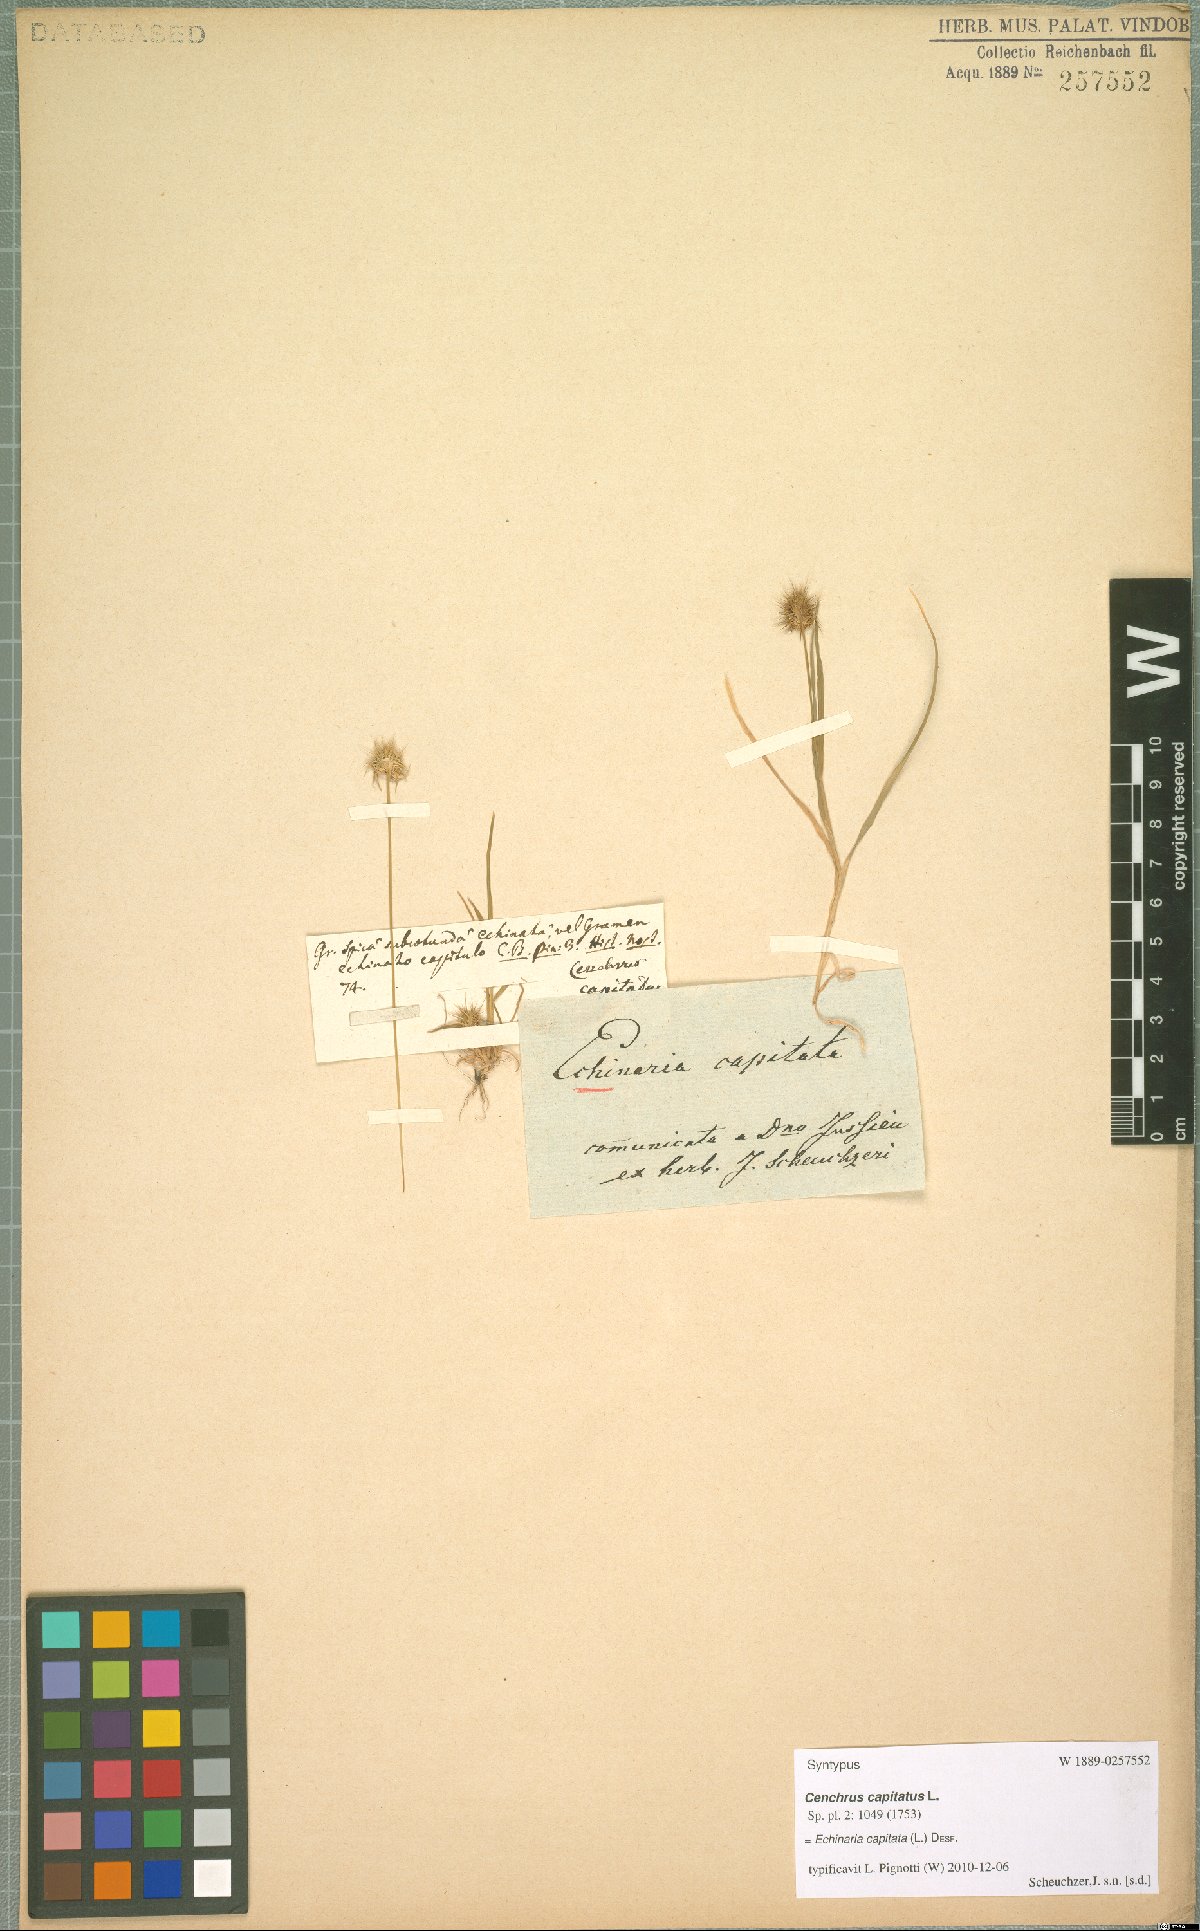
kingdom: Plantae
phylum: Tracheophyta
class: Liliopsida
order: Poales
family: Poaceae
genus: Echinaria
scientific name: Echinaria capitata
